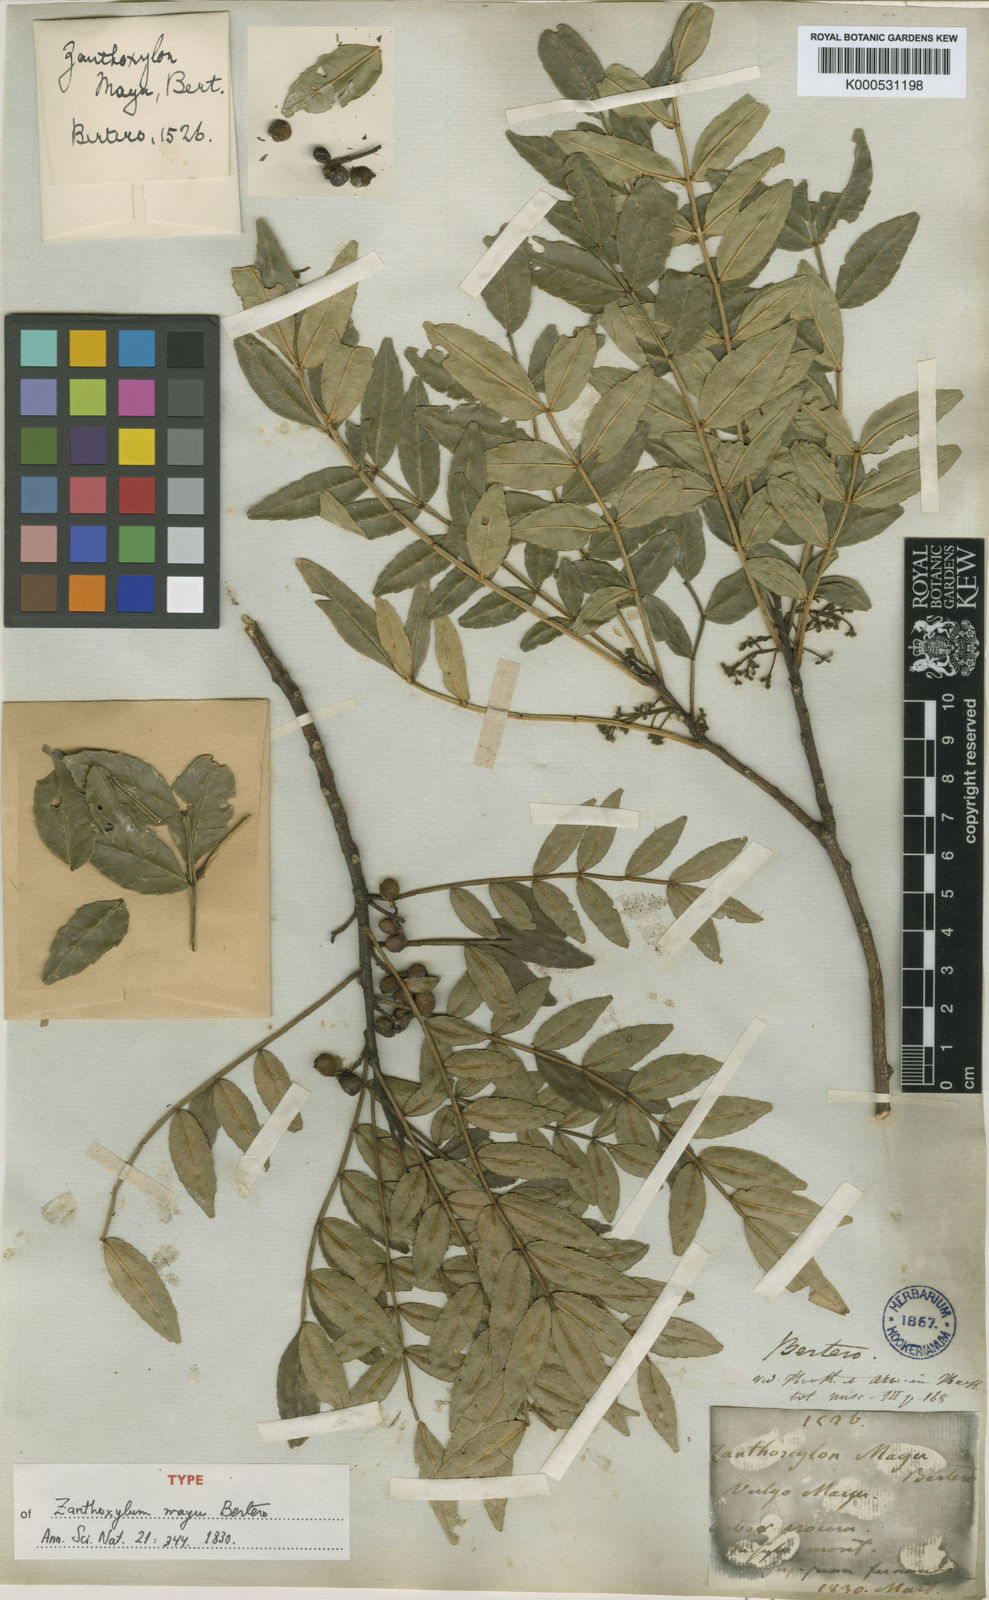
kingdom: Plantae
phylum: Tracheophyta
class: Magnoliopsida
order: Sapindales
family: Rutaceae
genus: Zanthoxylum
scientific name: Zanthoxylum mayu
